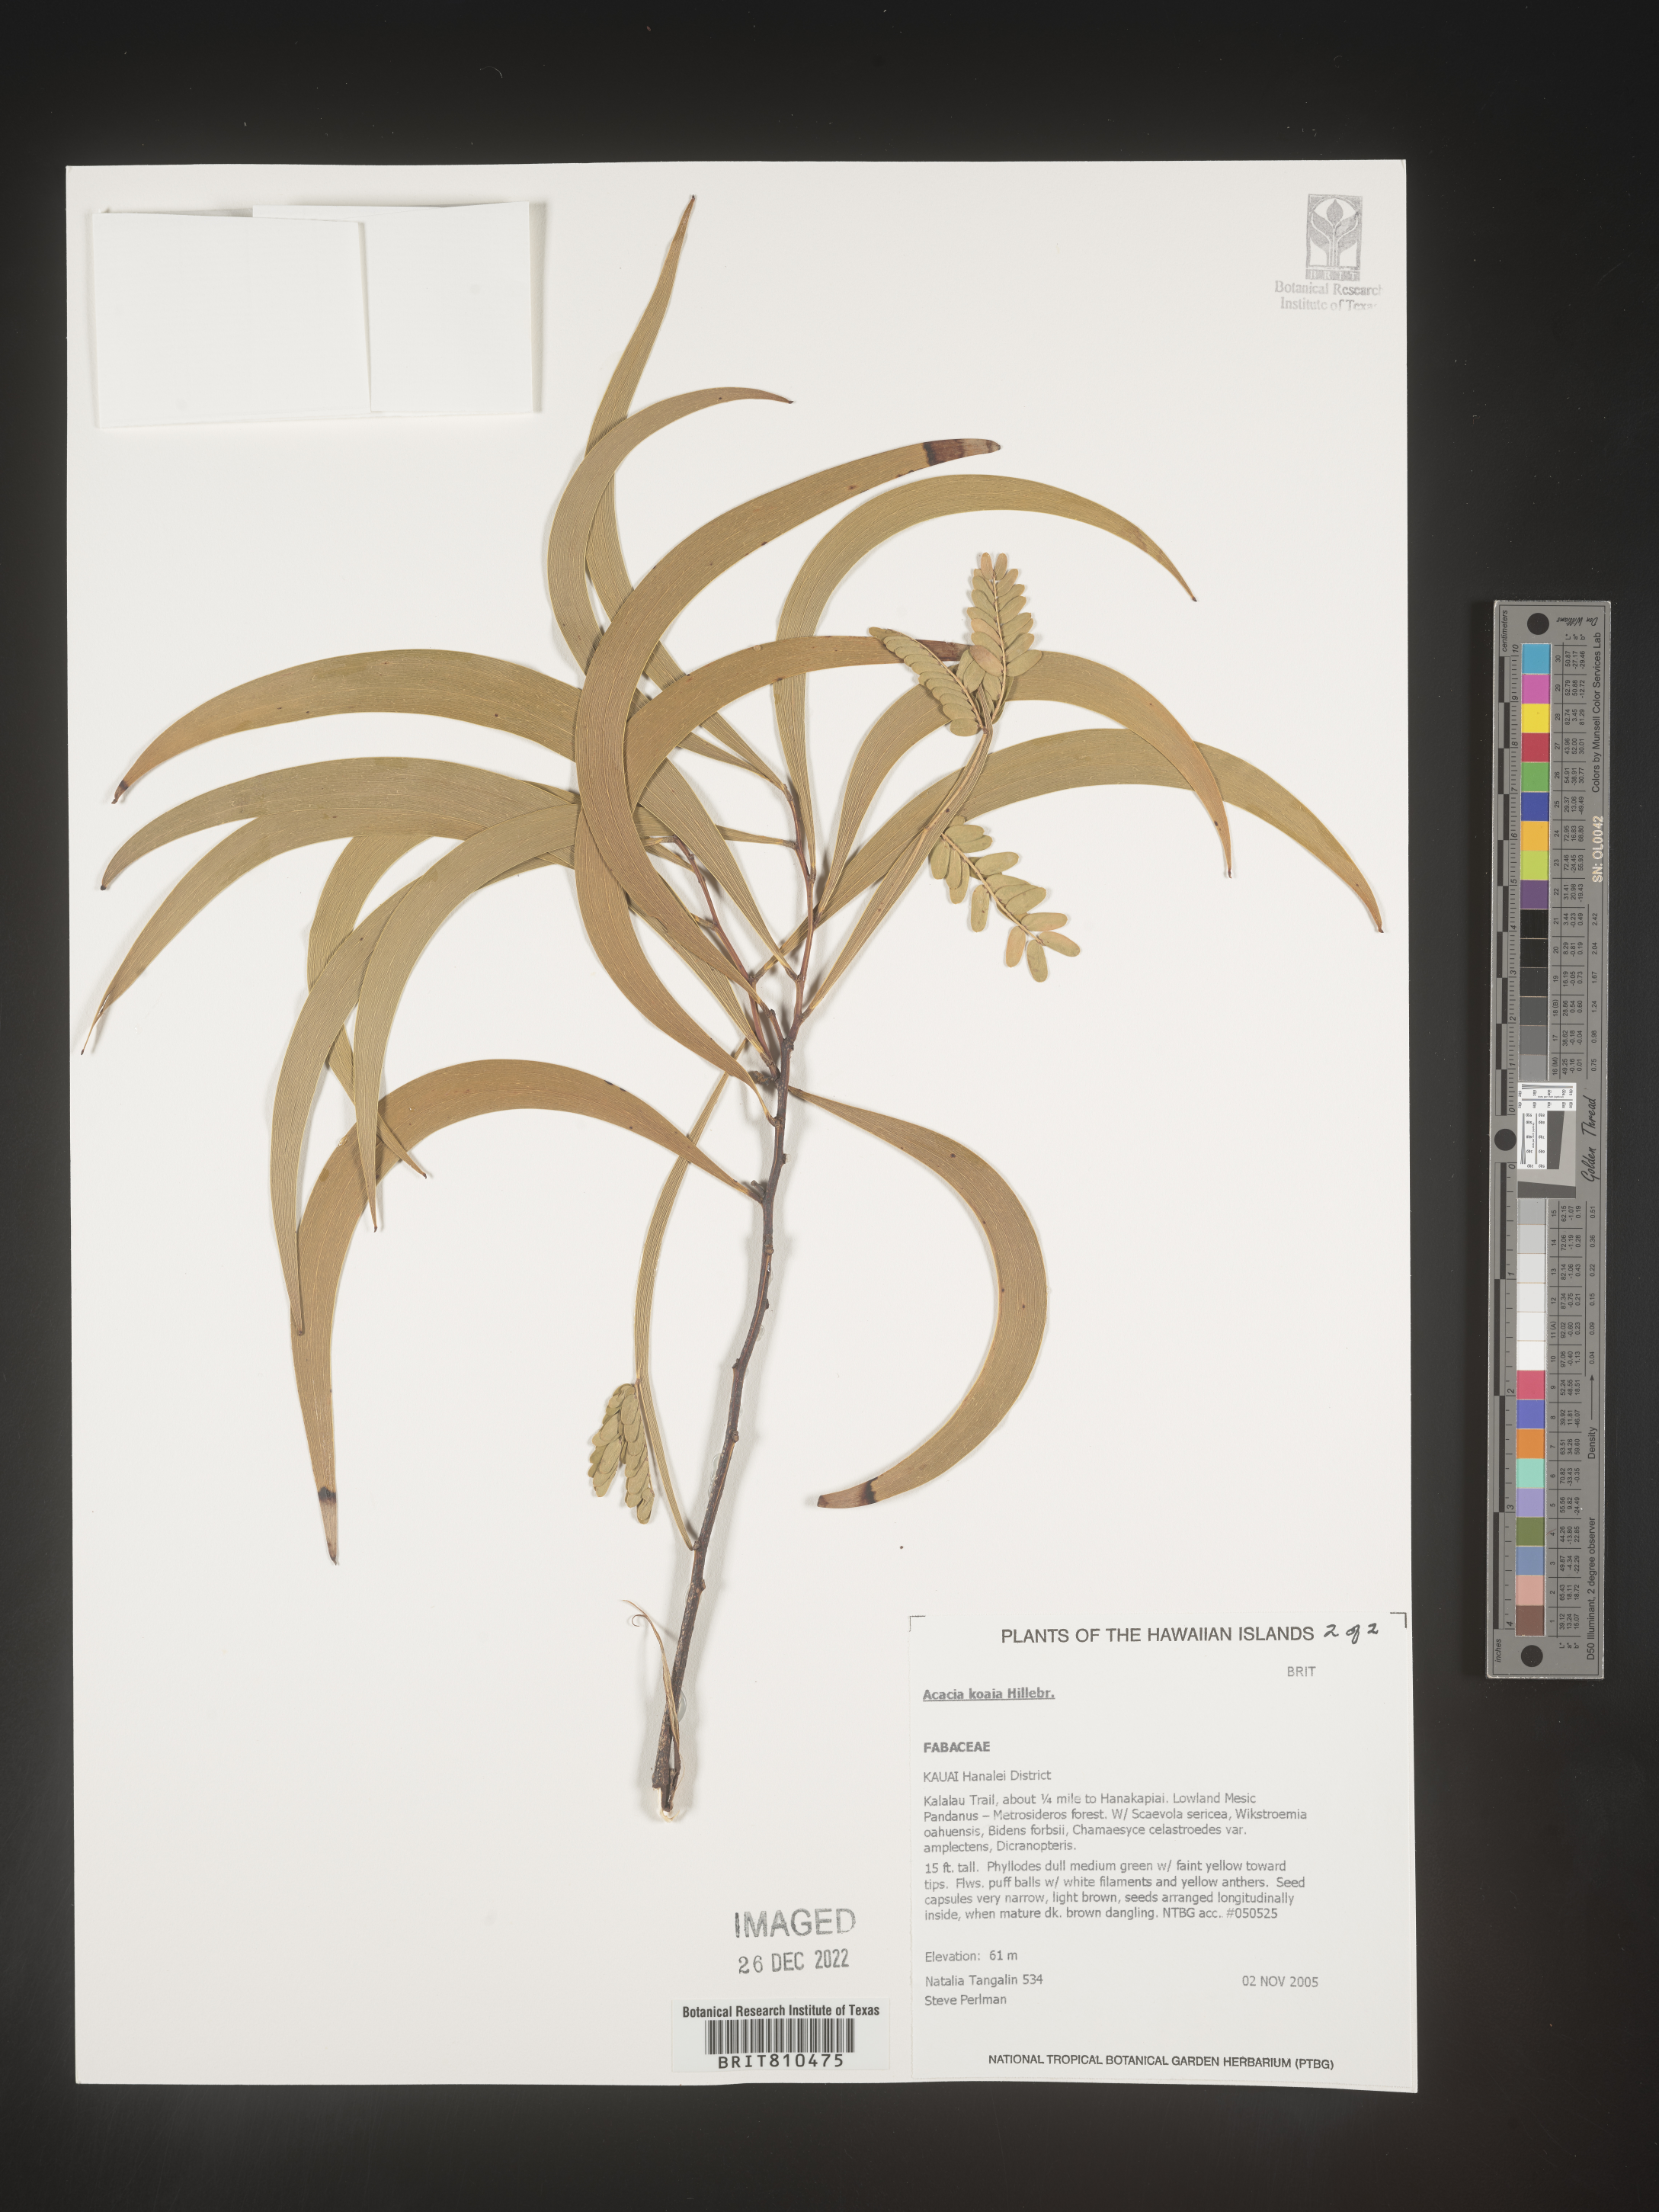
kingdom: Plantae
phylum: Tracheophyta
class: Magnoliopsida
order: Fabales
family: Fabaceae
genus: Acacia
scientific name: Acacia
